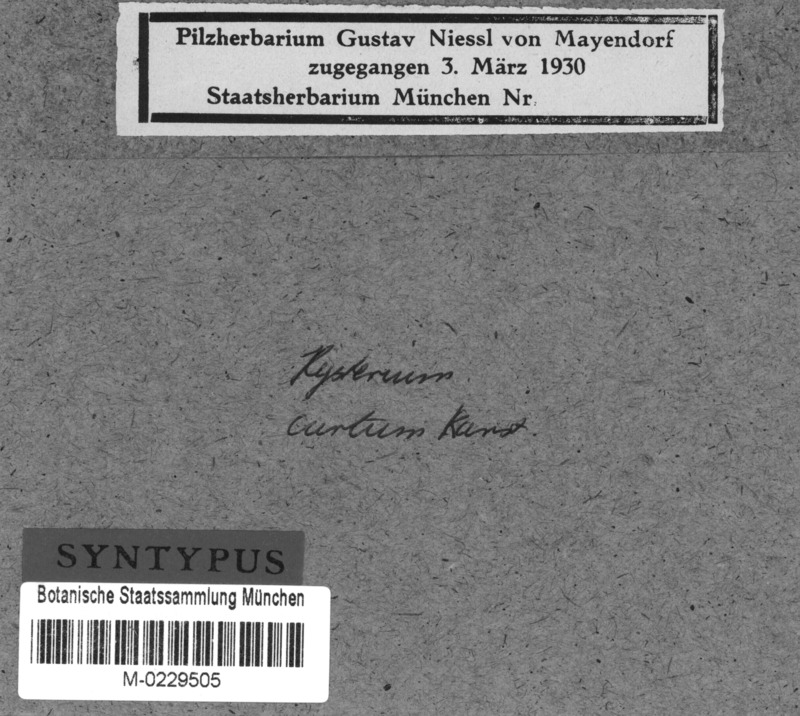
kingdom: Fungi
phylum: Ascomycota
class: Dothideomycetes
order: Hysteriales
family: Hysteriaceae
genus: Gloniella
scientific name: Gloniella
